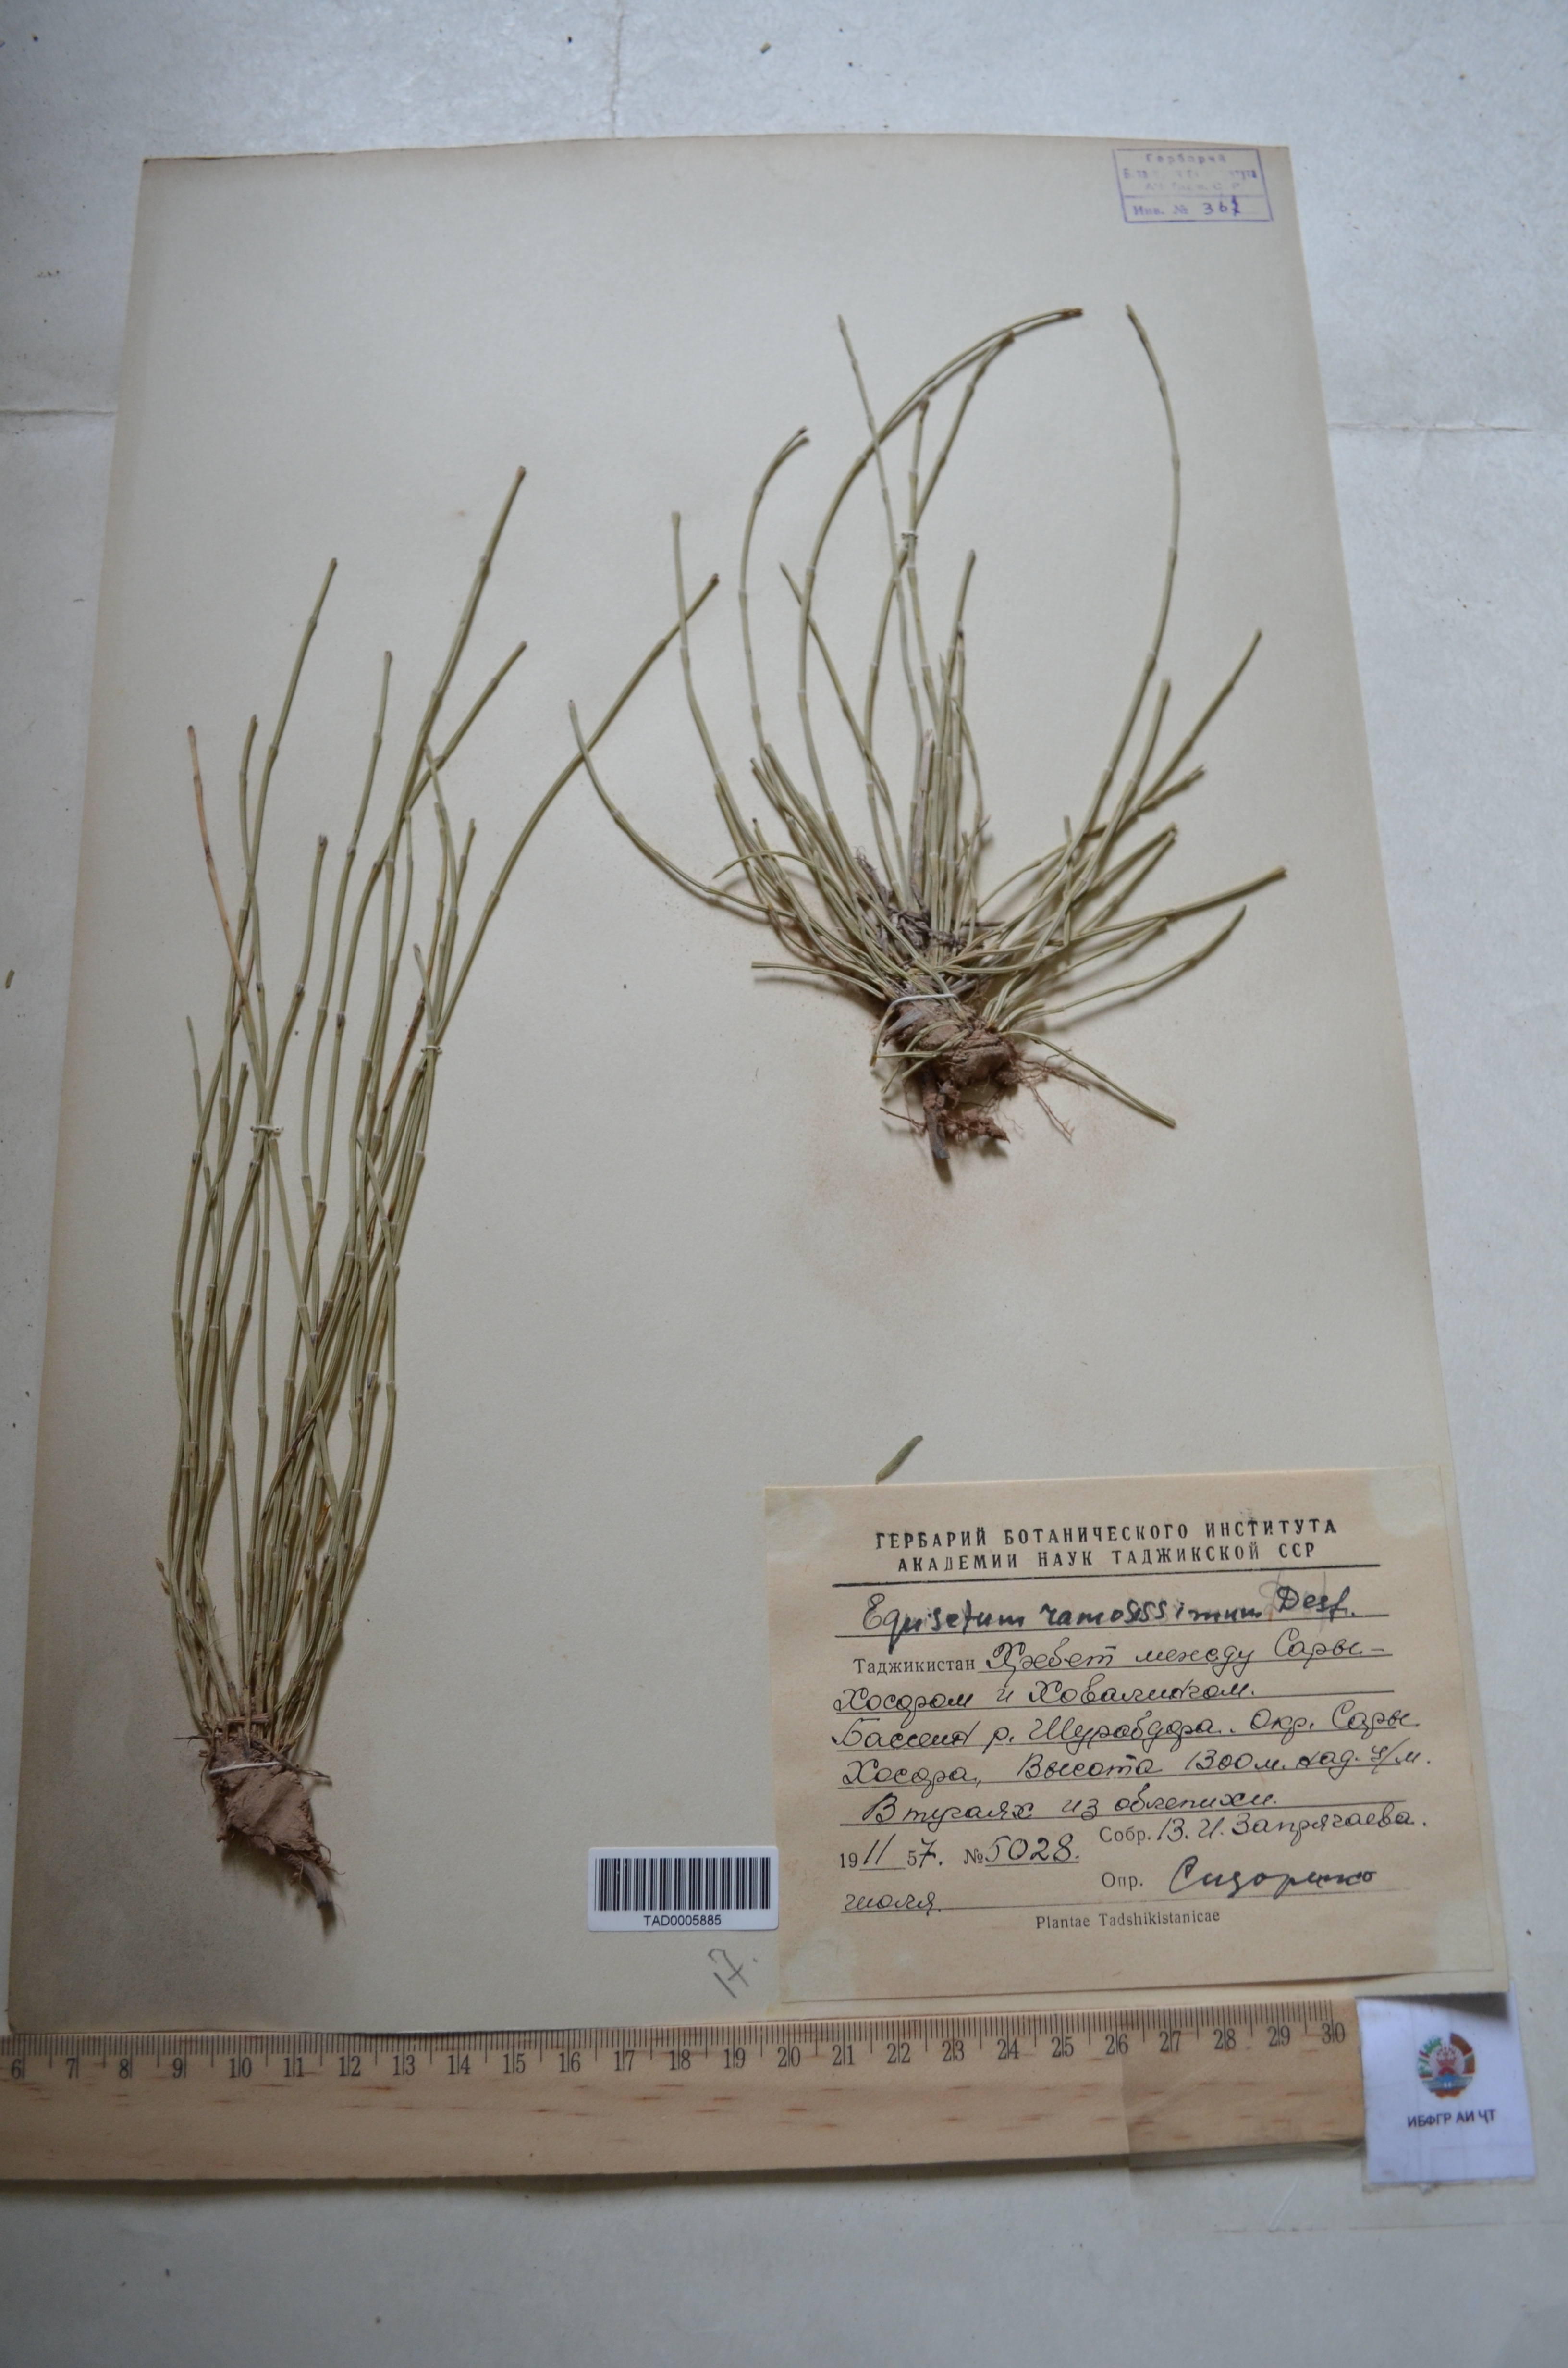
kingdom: Plantae
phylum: Tracheophyta
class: Polypodiopsida
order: Equisetales
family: Equisetaceae
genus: Equisetum
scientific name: Equisetum ramosissimum
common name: Branched horsetail
